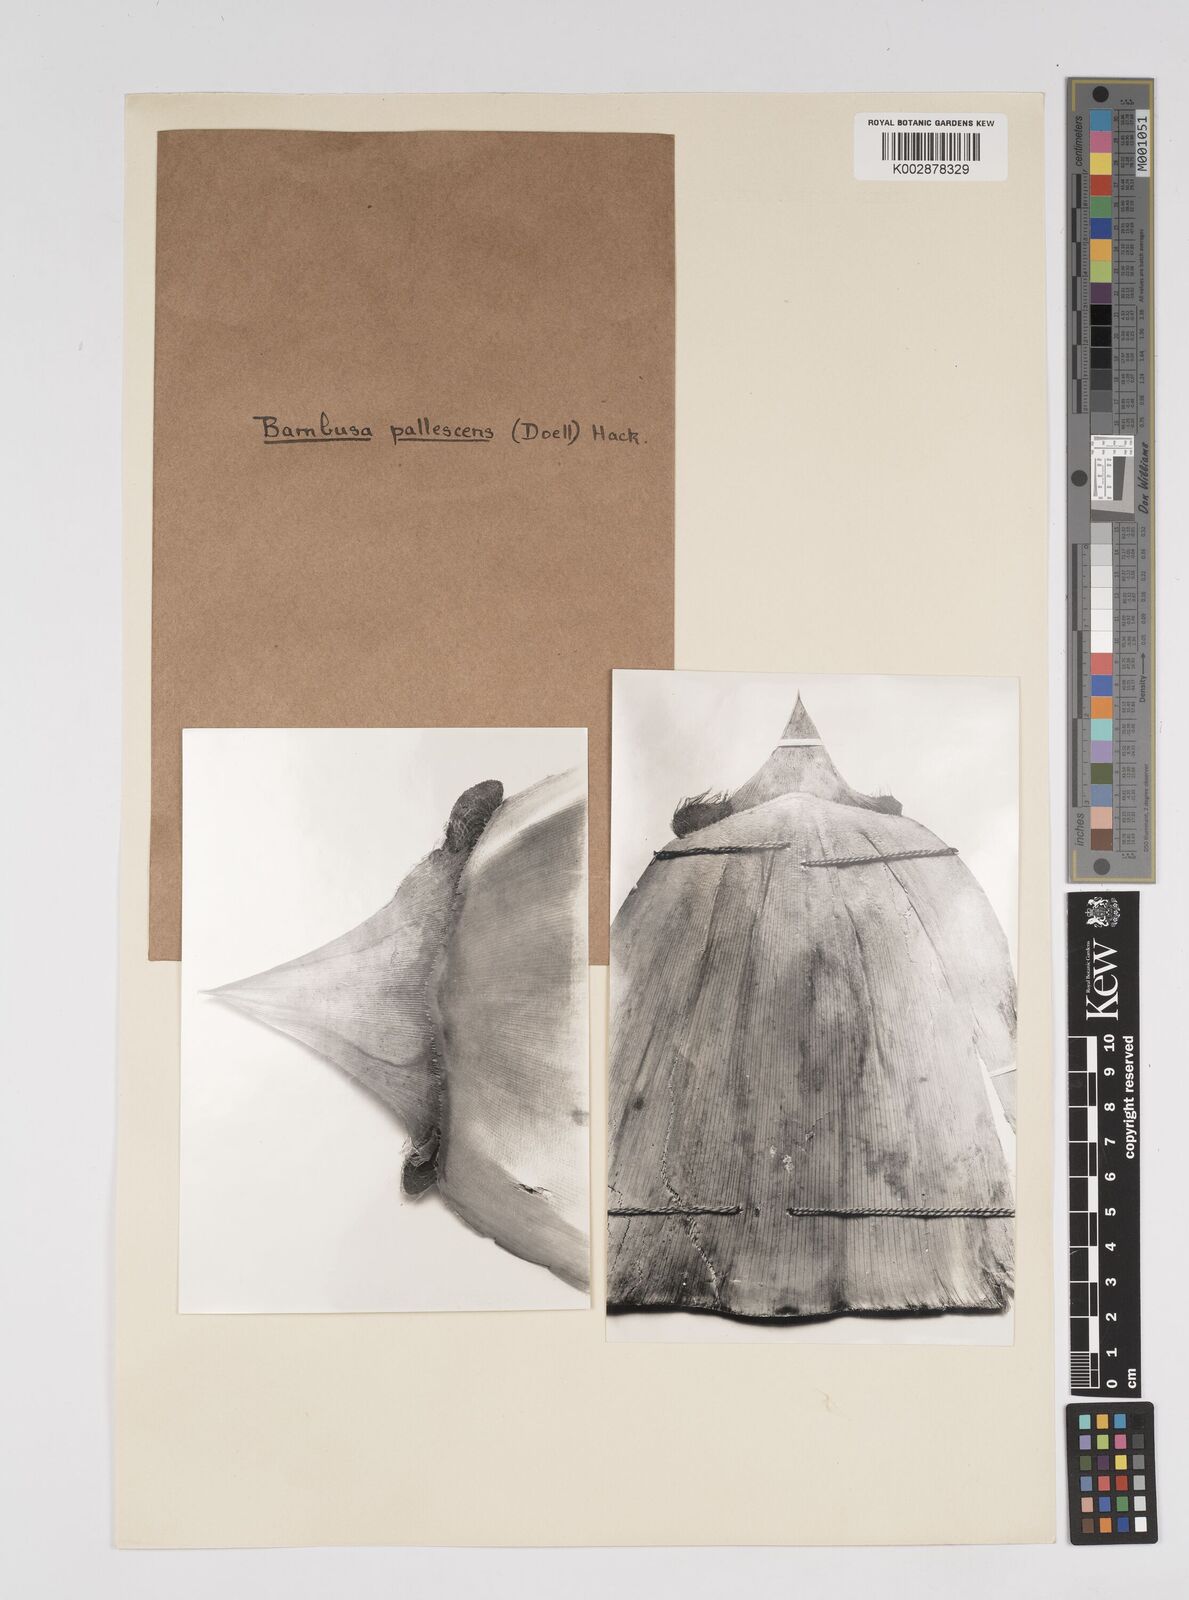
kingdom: Plantae
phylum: Tracheophyta
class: Liliopsida
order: Poales
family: Poaceae
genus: Bambusa
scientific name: Bambusa tuldoides
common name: Verdant bamboo
